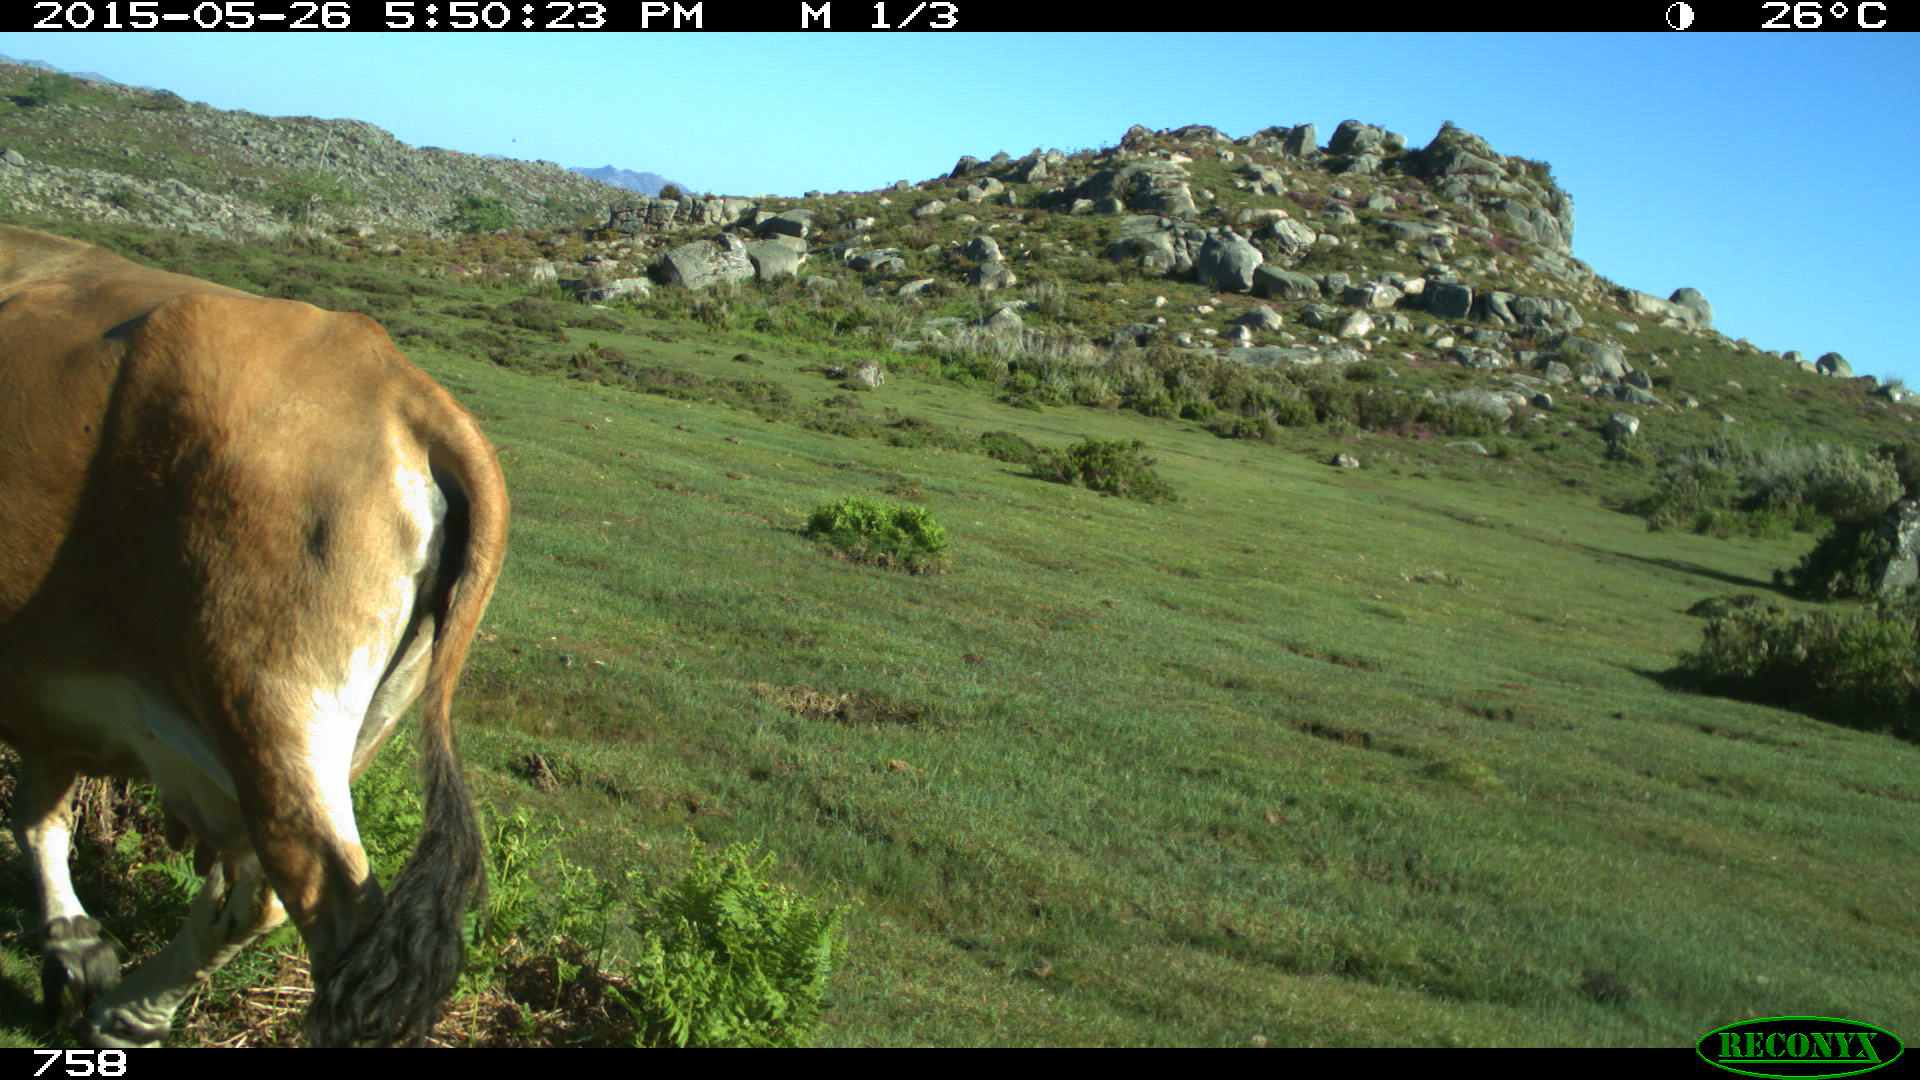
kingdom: Animalia
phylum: Chordata
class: Mammalia
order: Artiodactyla
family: Bovidae
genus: Bos
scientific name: Bos taurus
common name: Domesticated cattle
